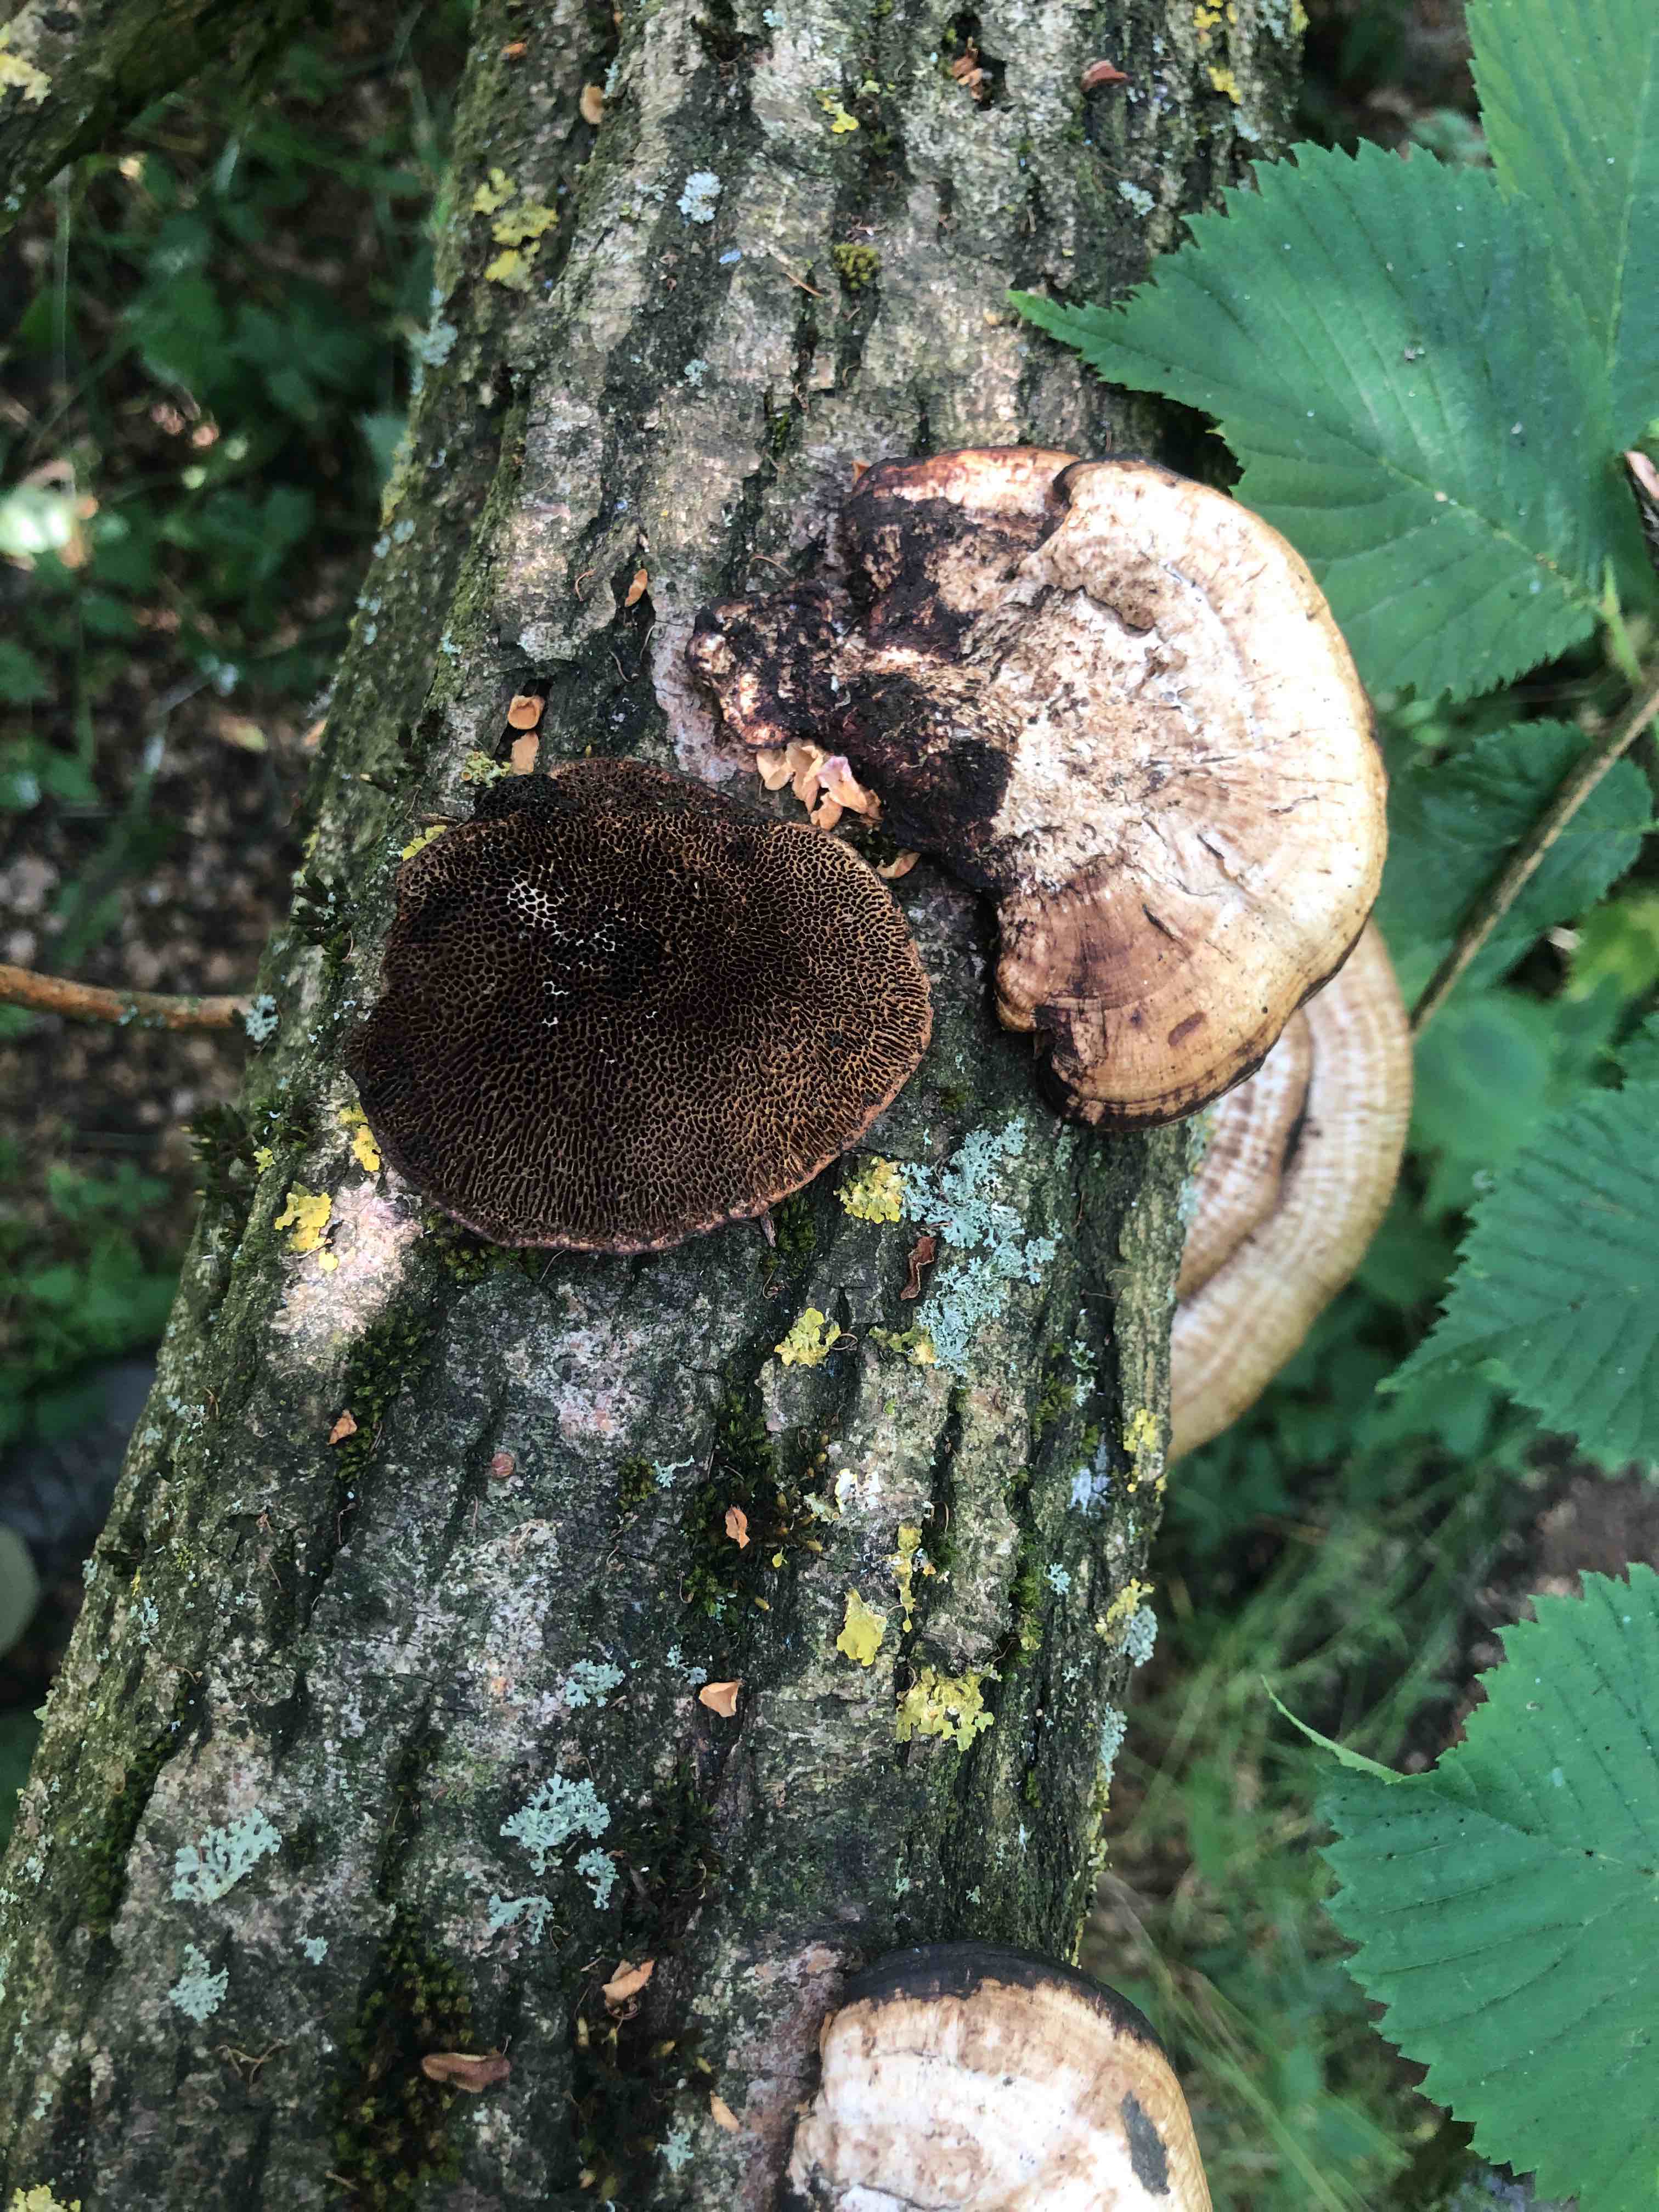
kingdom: Fungi
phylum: Basidiomycota
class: Agaricomycetes
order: Polyporales
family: Polyporaceae
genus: Daedaleopsis
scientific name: Daedaleopsis confragosa
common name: rødmende læderporesvamp
